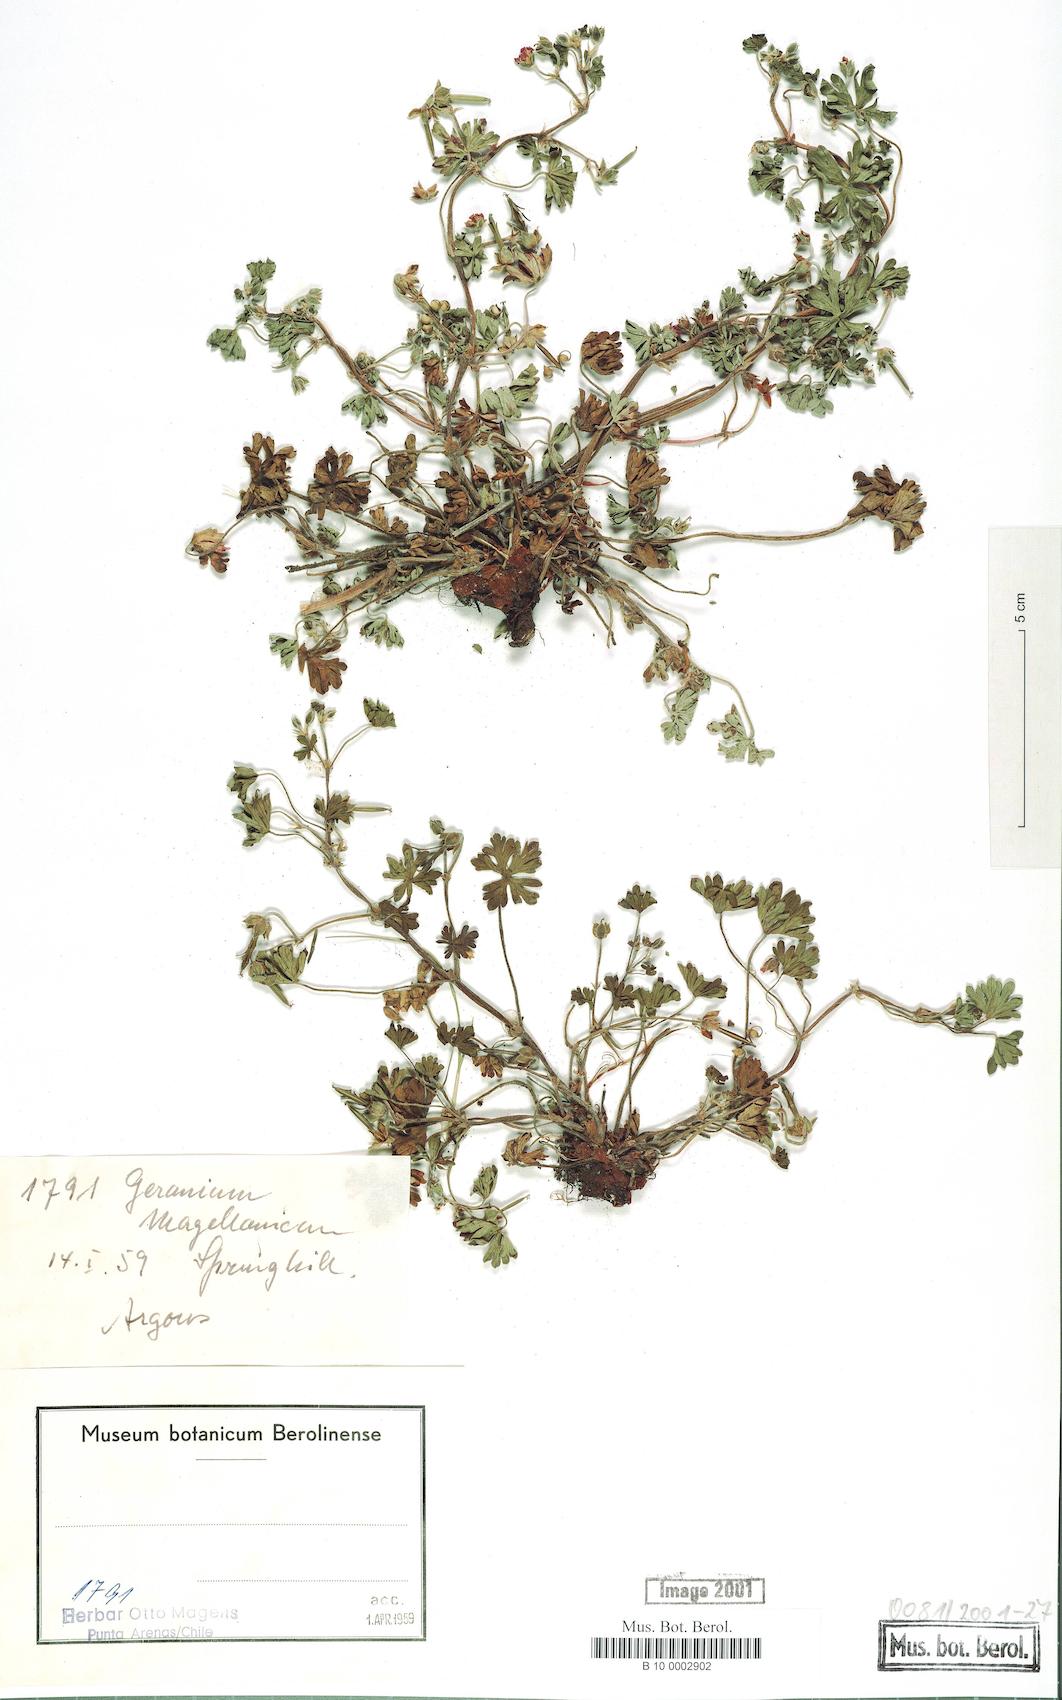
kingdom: Plantae
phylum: Tracheophyta
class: Magnoliopsida
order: Geraniales
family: Geraniaceae
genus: Geranium
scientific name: Geranium magellanicum
